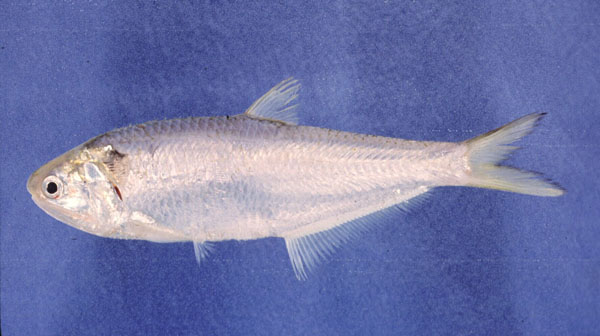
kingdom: Animalia
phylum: Chordata
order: Clupeiformes
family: Engraulidae
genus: Thryssa
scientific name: Thryssa vitrirostris
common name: Orangemouth anchovy
